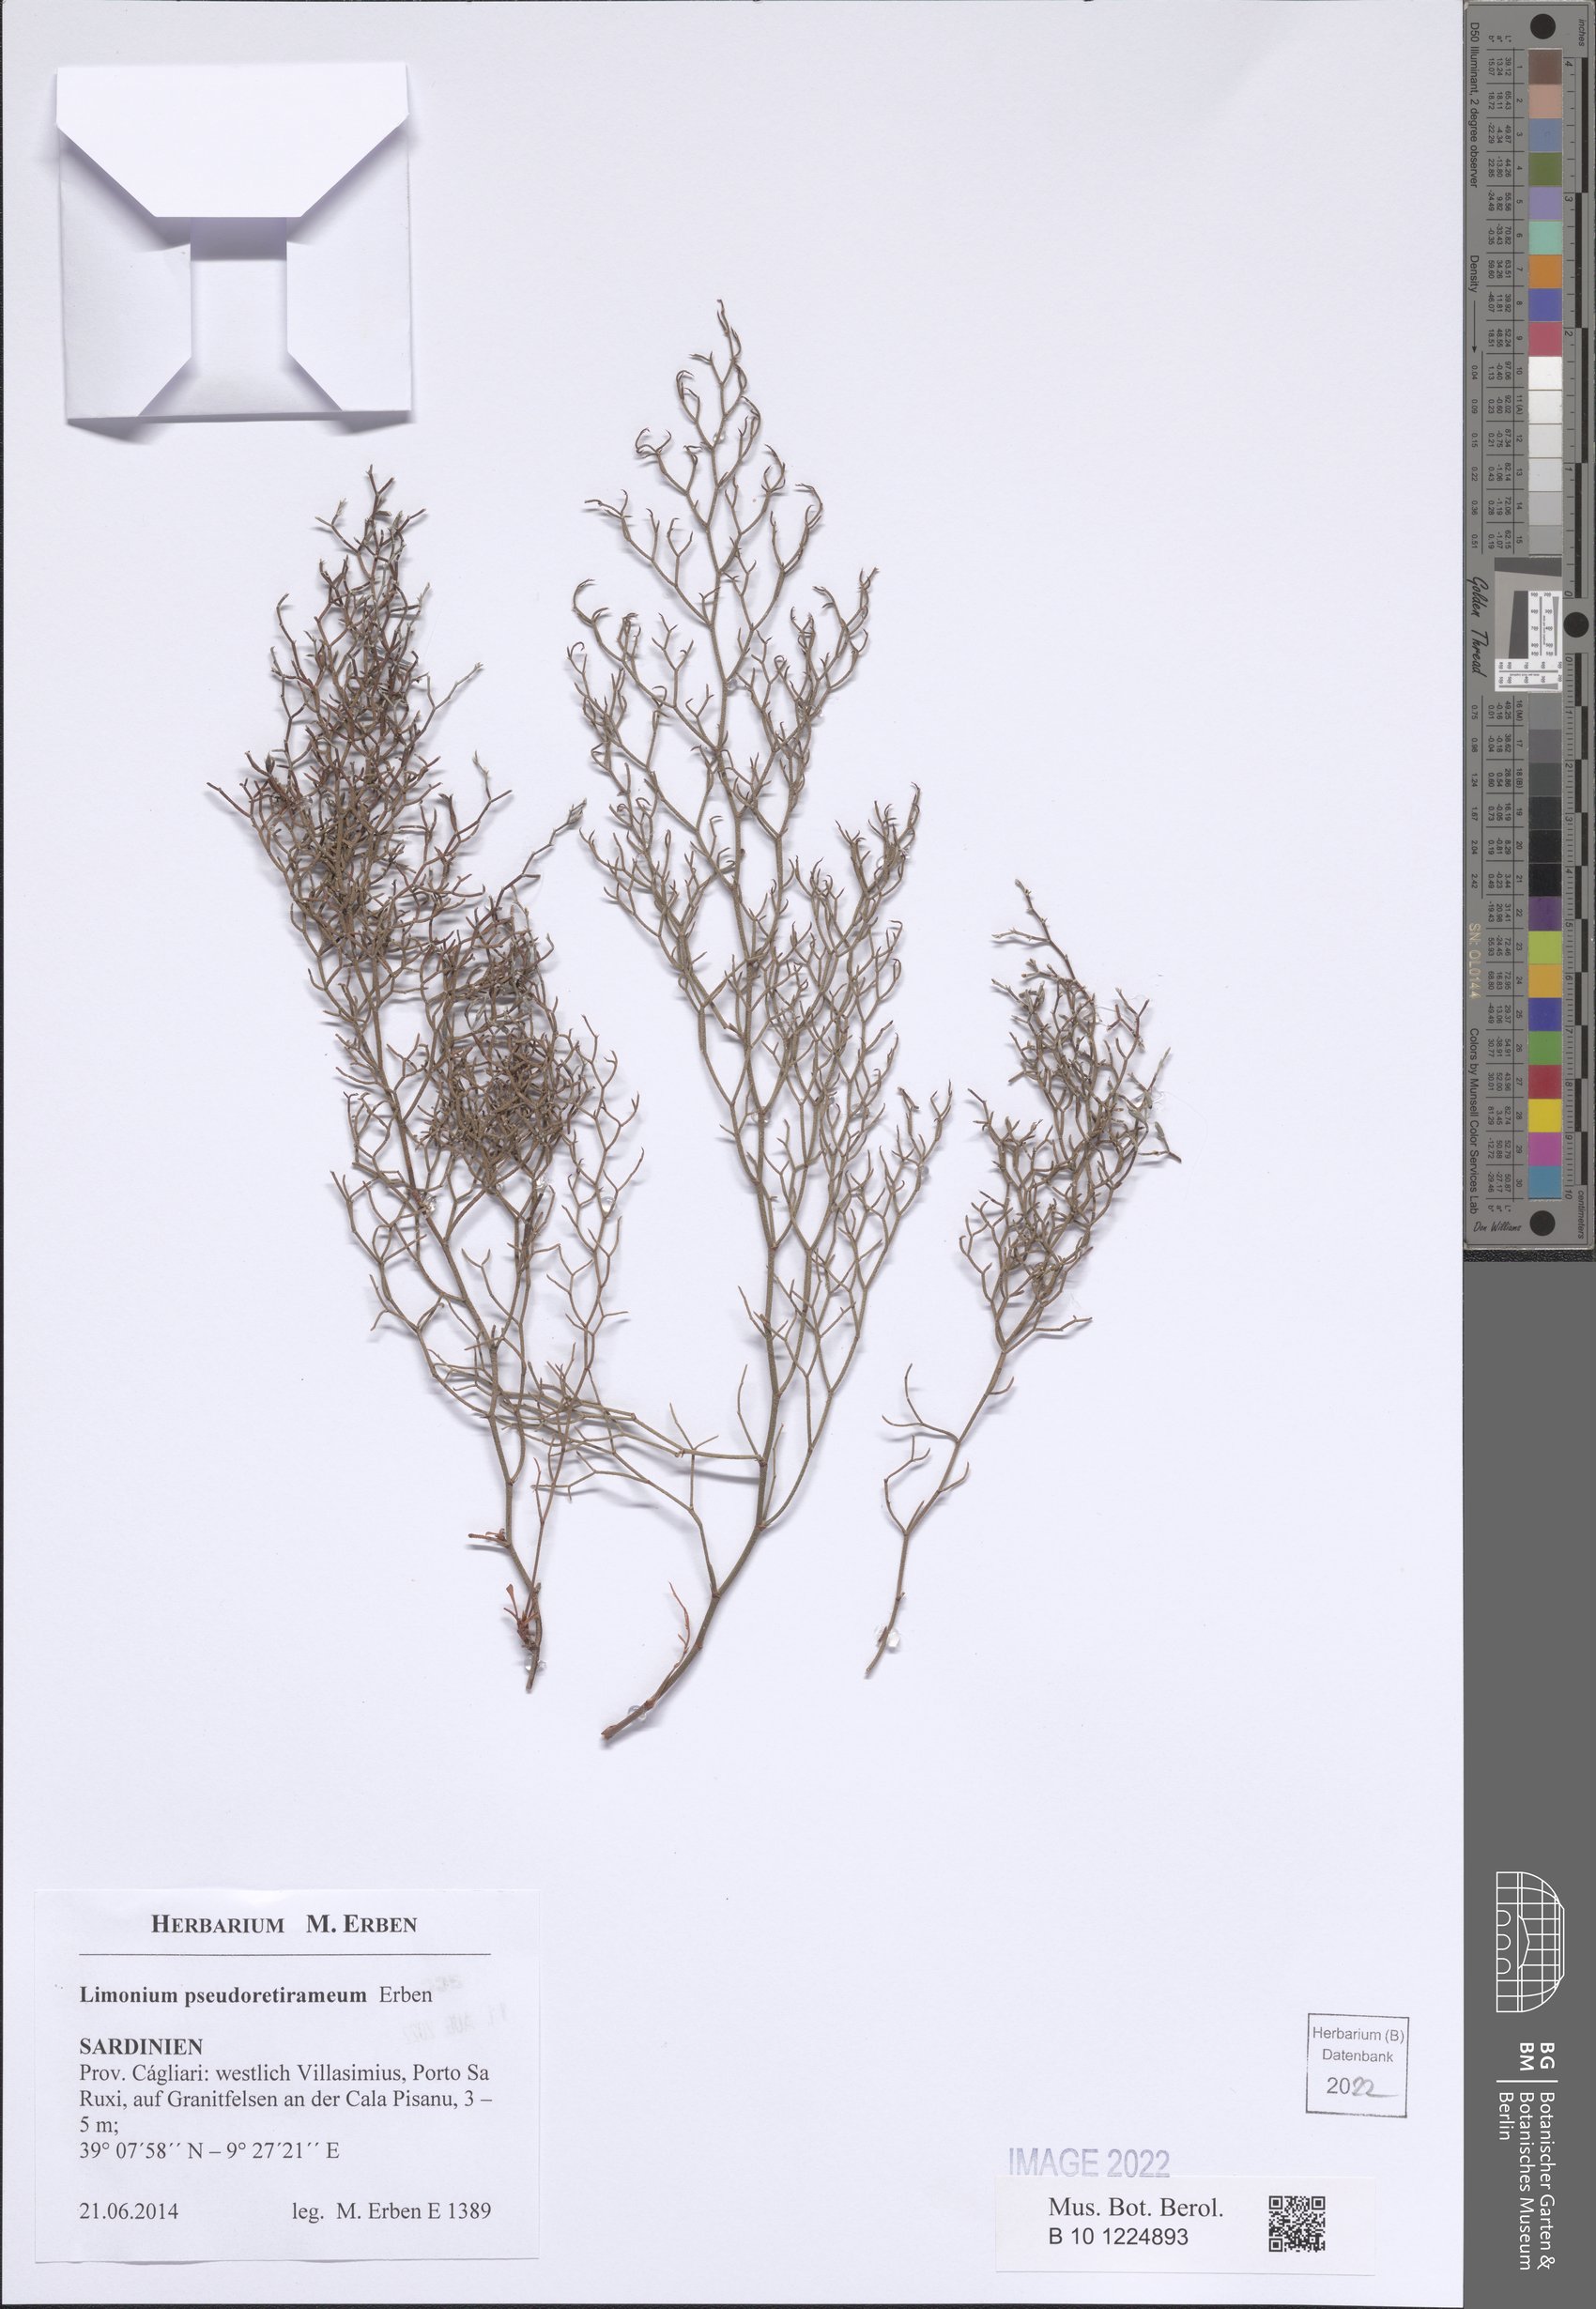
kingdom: Plantae
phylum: Tracheophyta
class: Magnoliopsida
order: Caryophyllales
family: Plumbaginaceae
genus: Limonium
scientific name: Limonium
